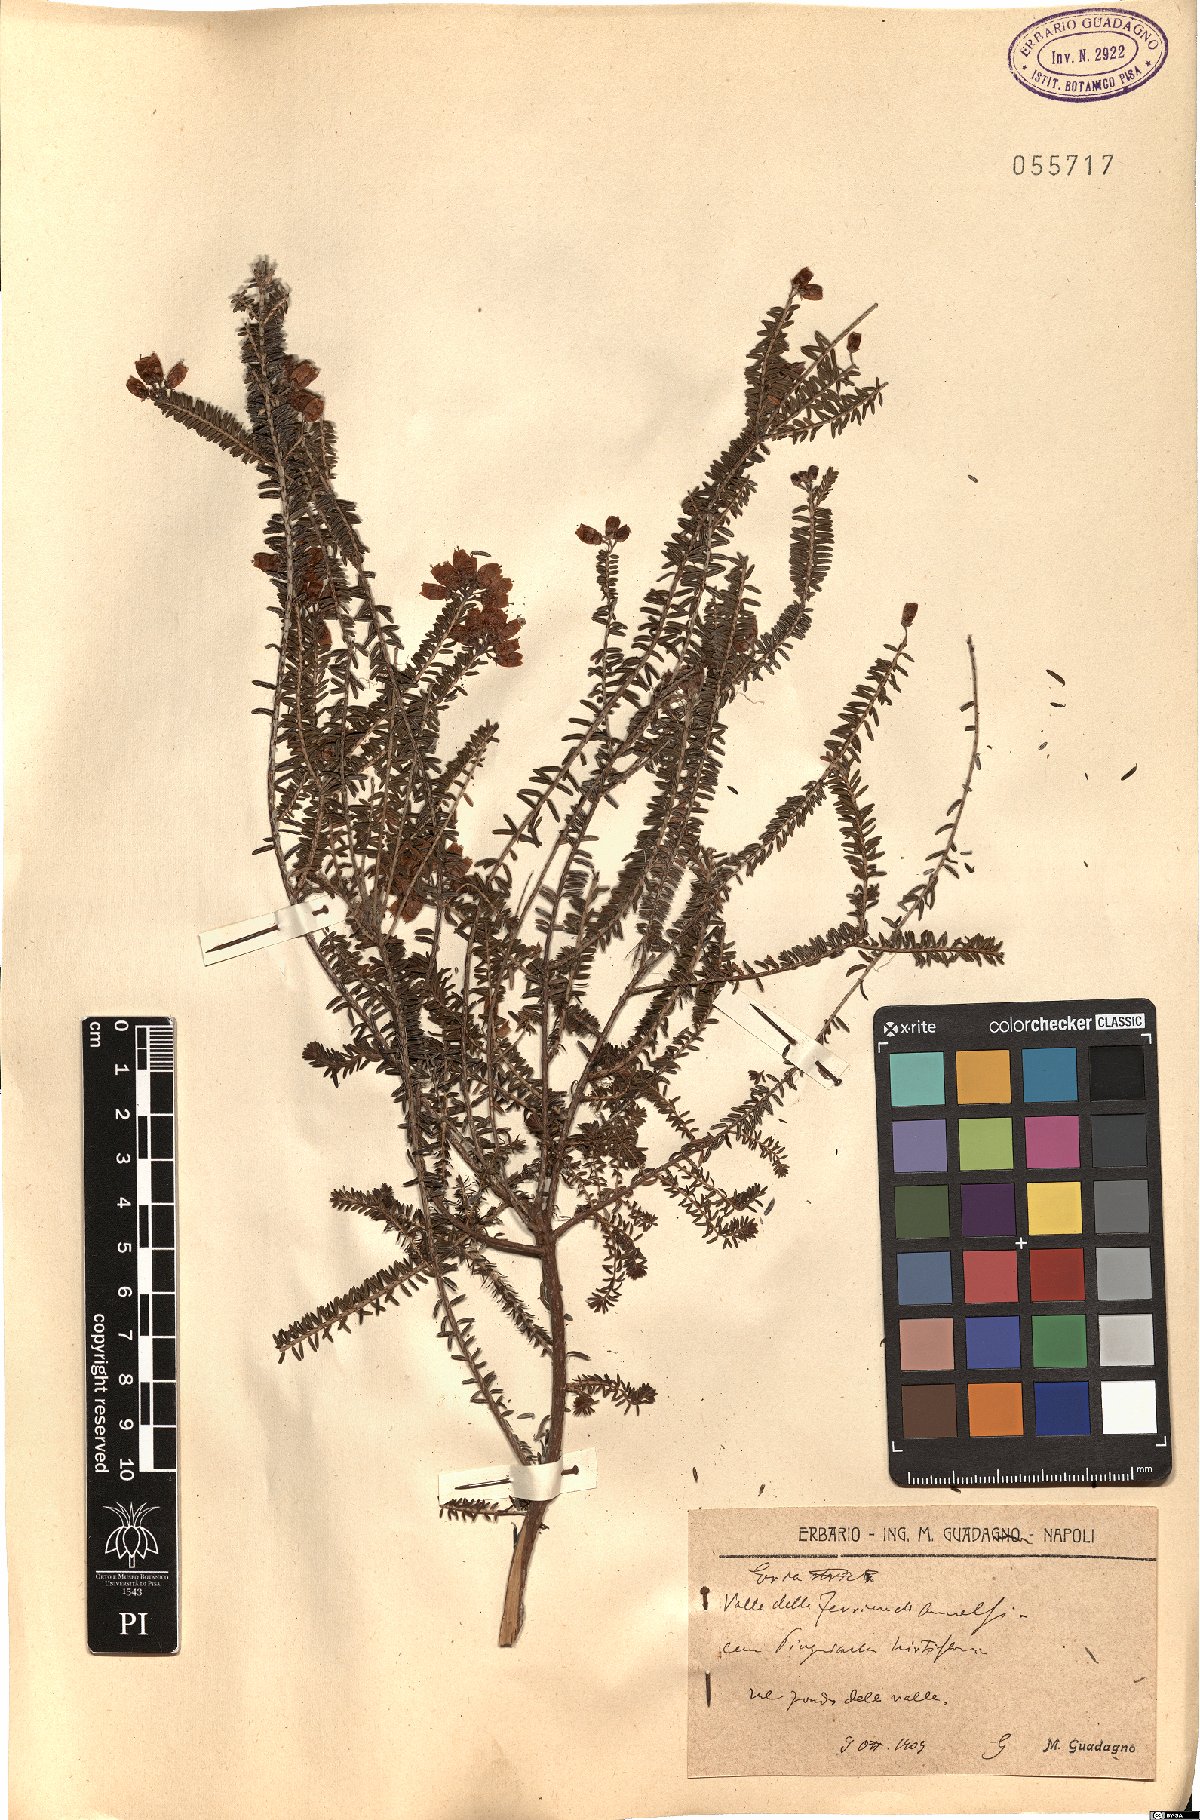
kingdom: Plantae
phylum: Tracheophyta
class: Magnoliopsida
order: Ericales
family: Ericaceae
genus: Erica
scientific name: Erica terminalis
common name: Corsican heath
